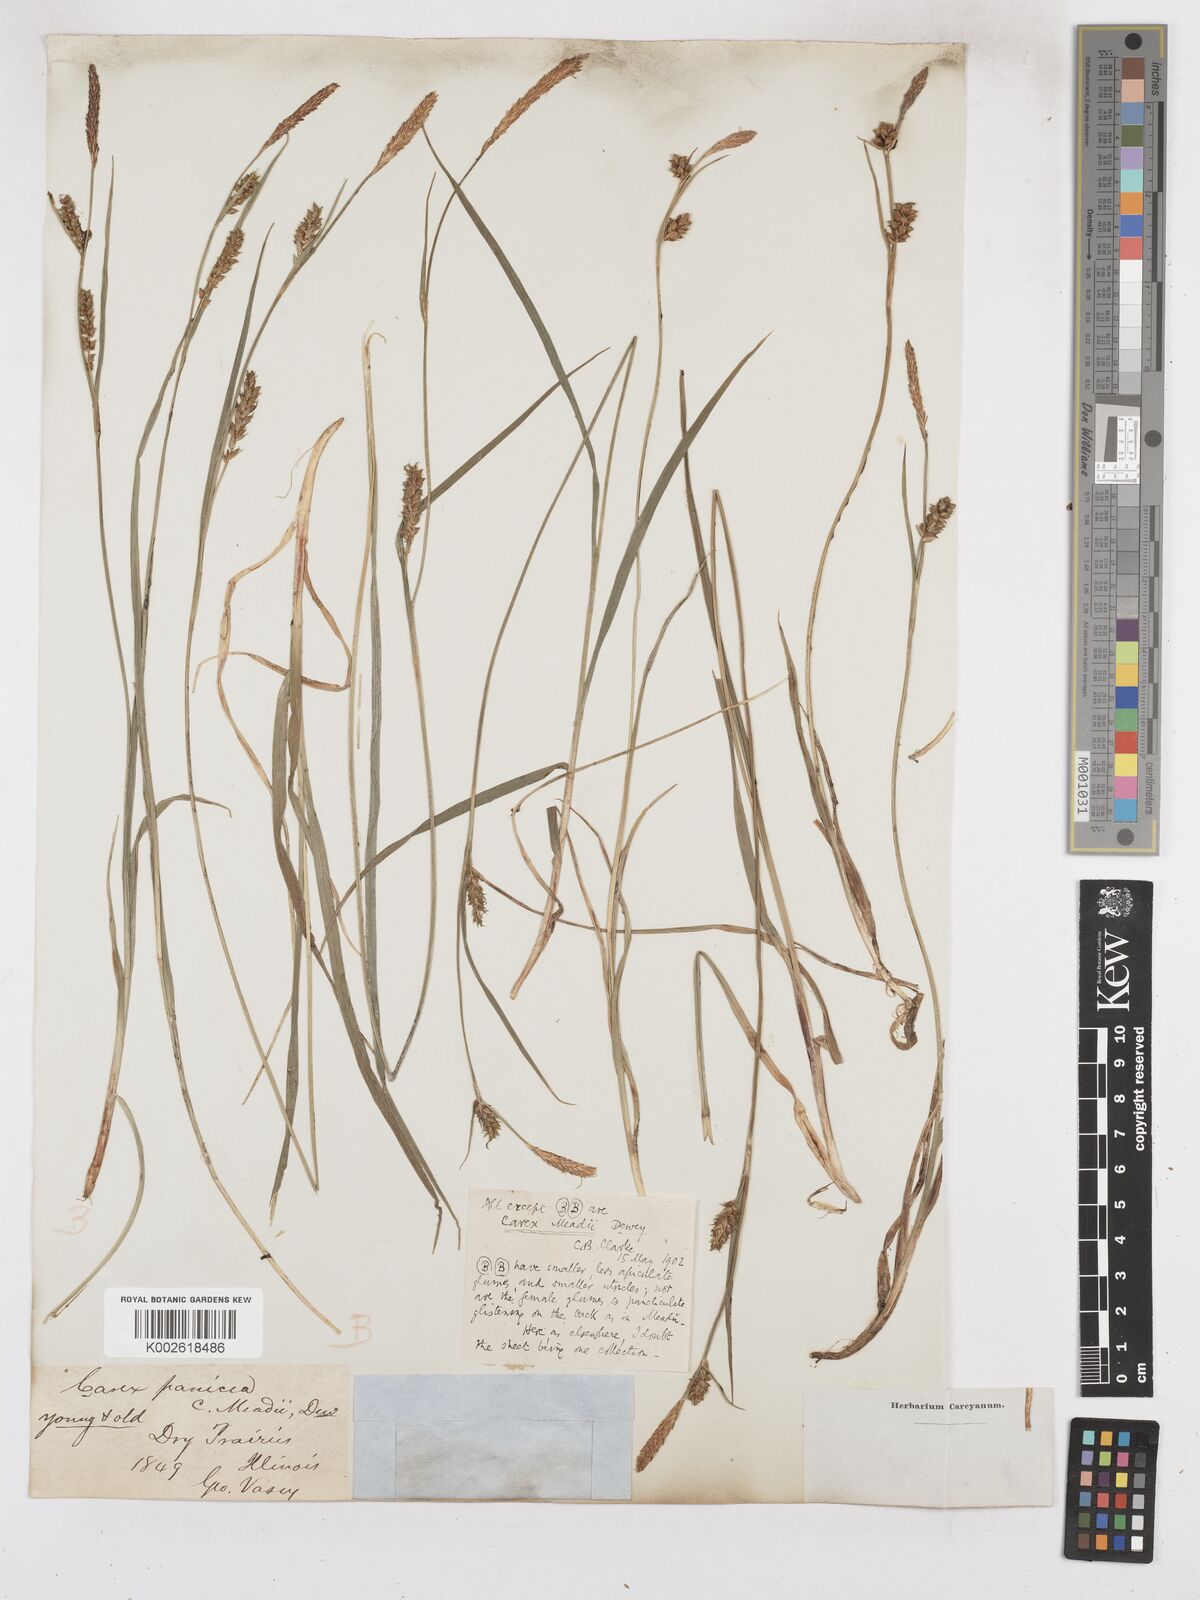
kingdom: Plantae
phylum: Tracheophyta
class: Liliopsida
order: Poales
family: Cyperaceae
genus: Carex
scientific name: Carex meadii
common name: Mead's sedge
